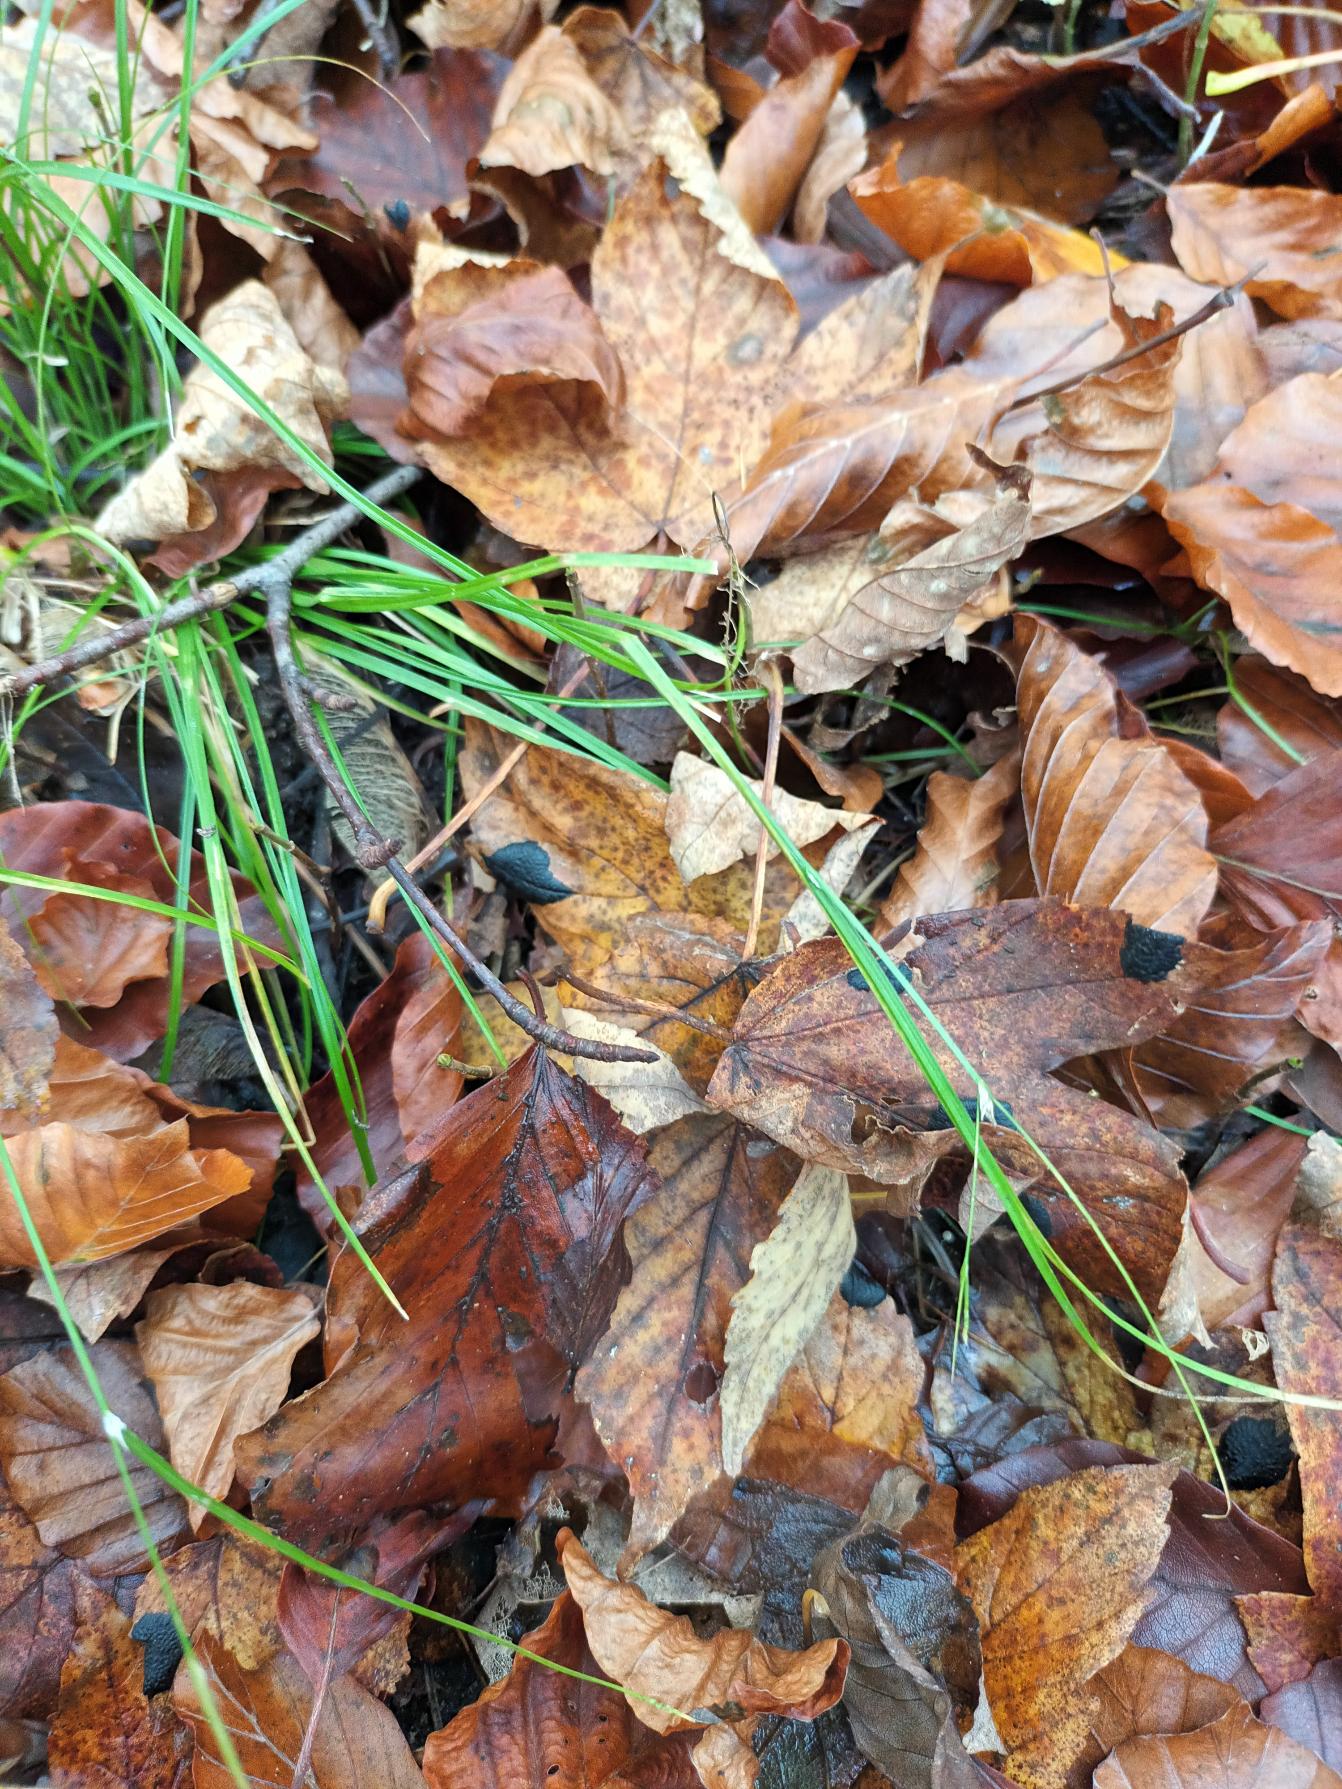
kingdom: Plantae
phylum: Tracheophyta
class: Liliopsida
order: Poales
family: Cyperaceae
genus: Carex
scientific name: Carex remota
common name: Akselblomstret star
